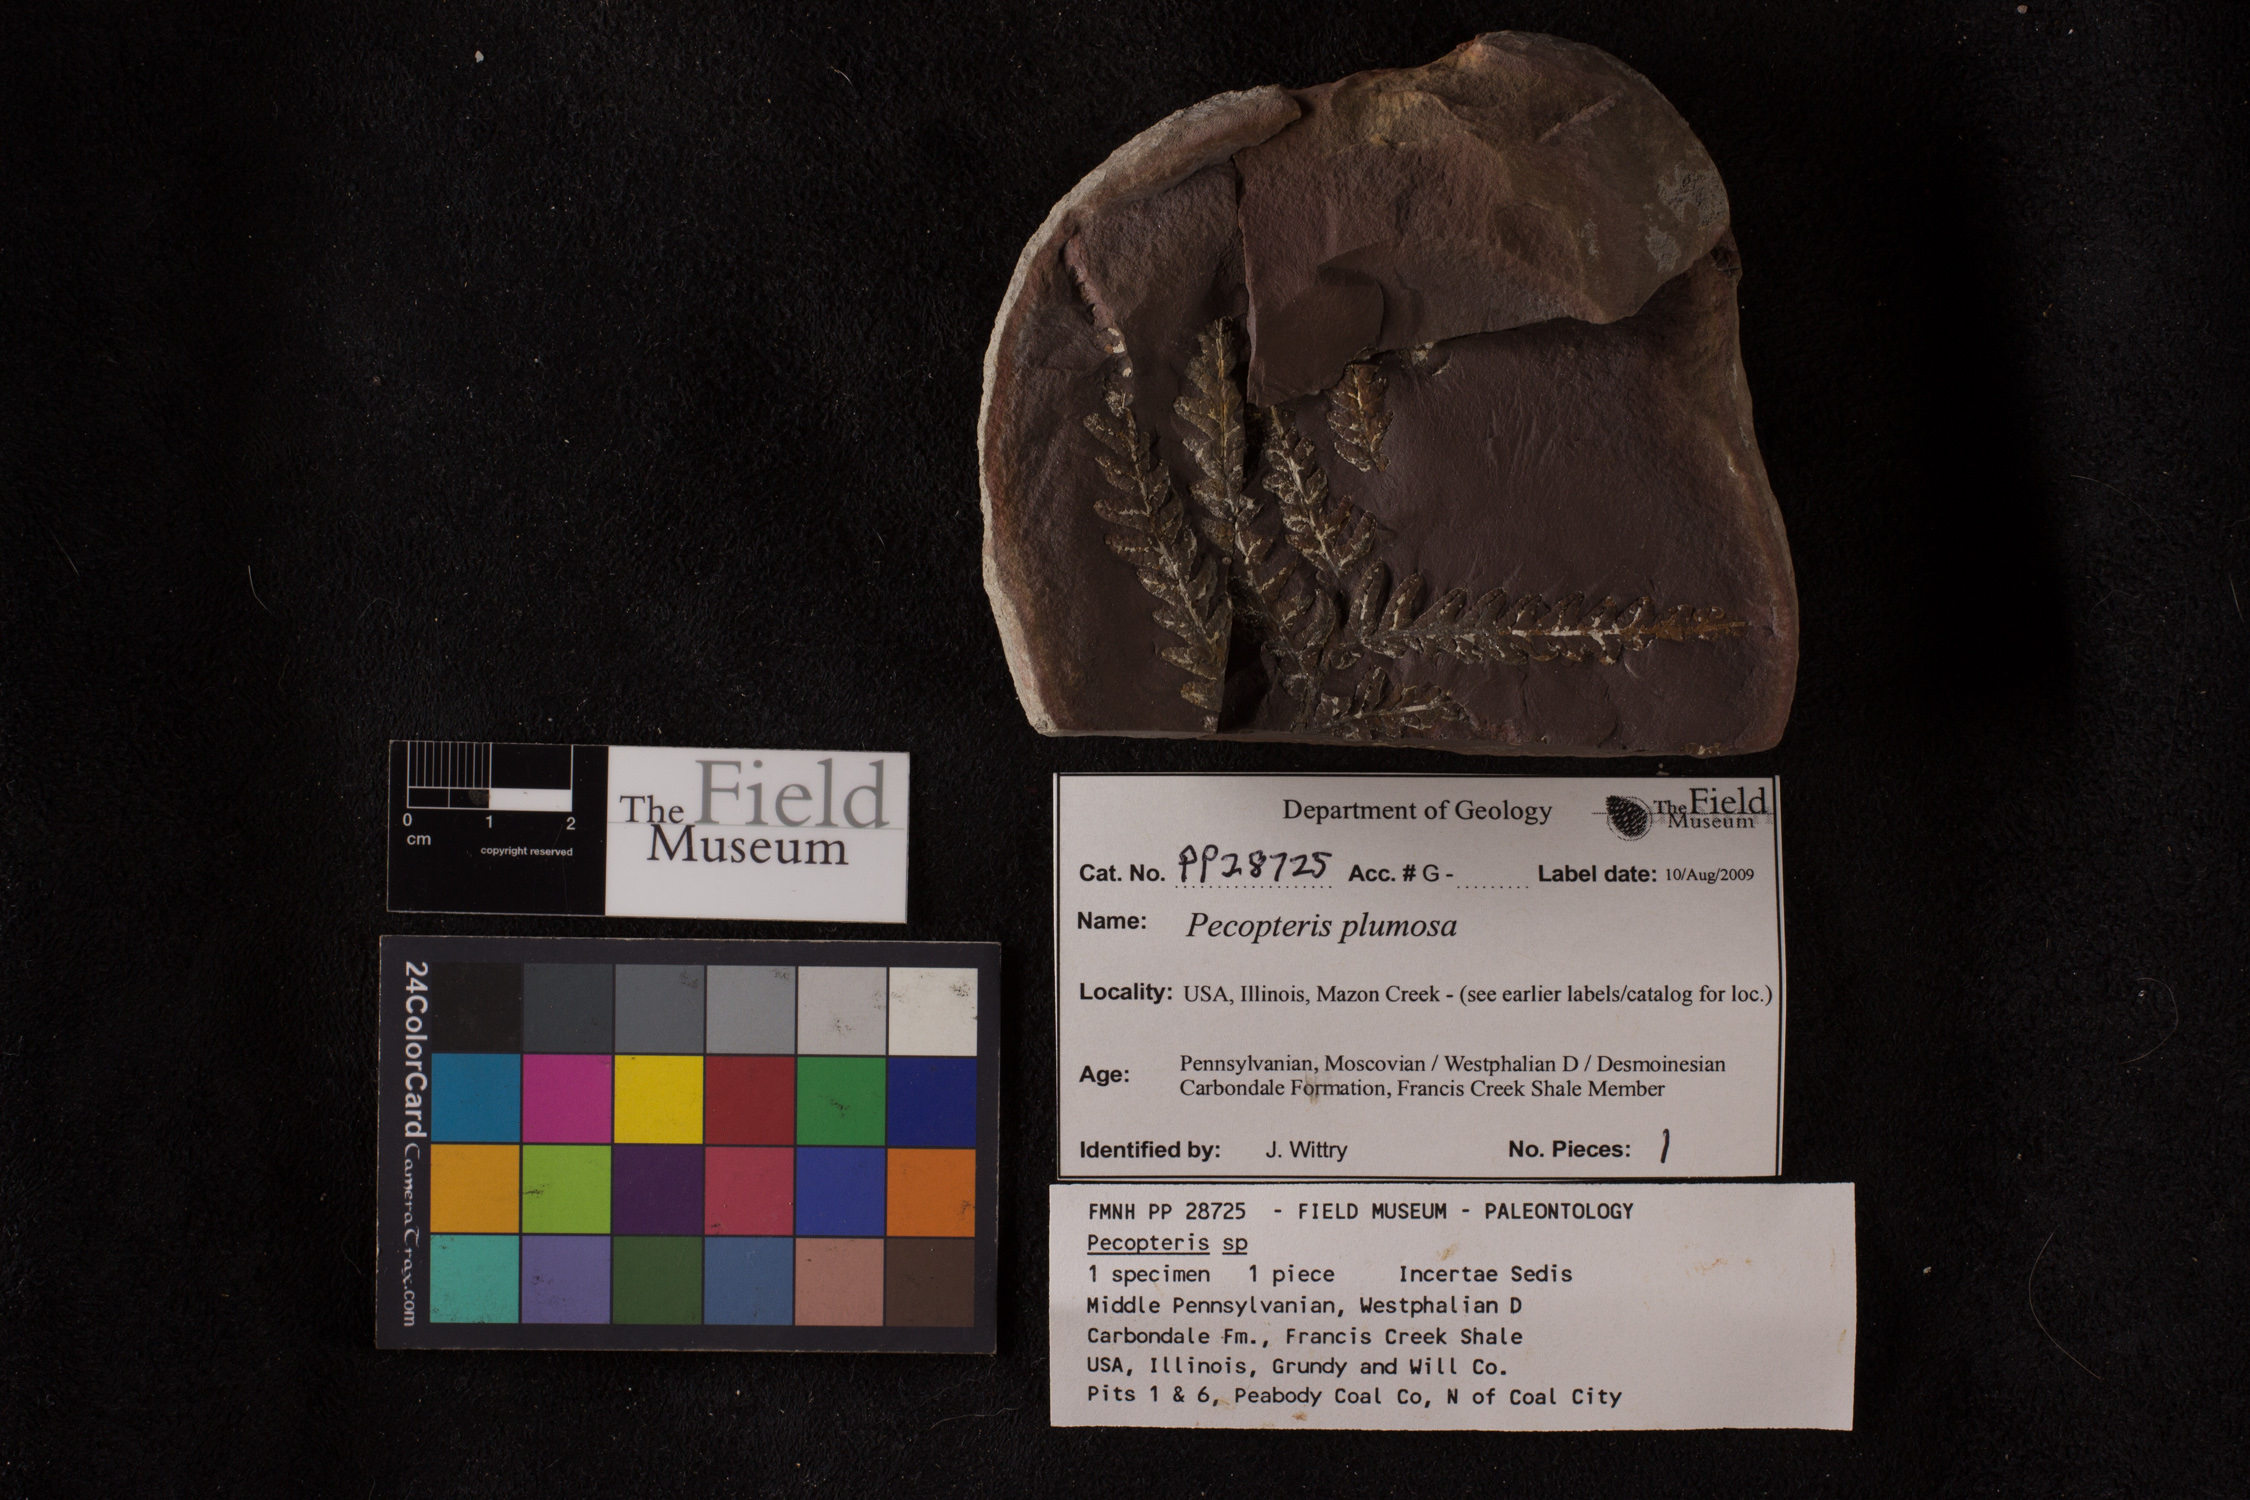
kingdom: Plantae
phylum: Tracheophyta
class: Polypodiopsida
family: Tedeleaceae
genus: Senftenbergia
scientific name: Senftenbergia
